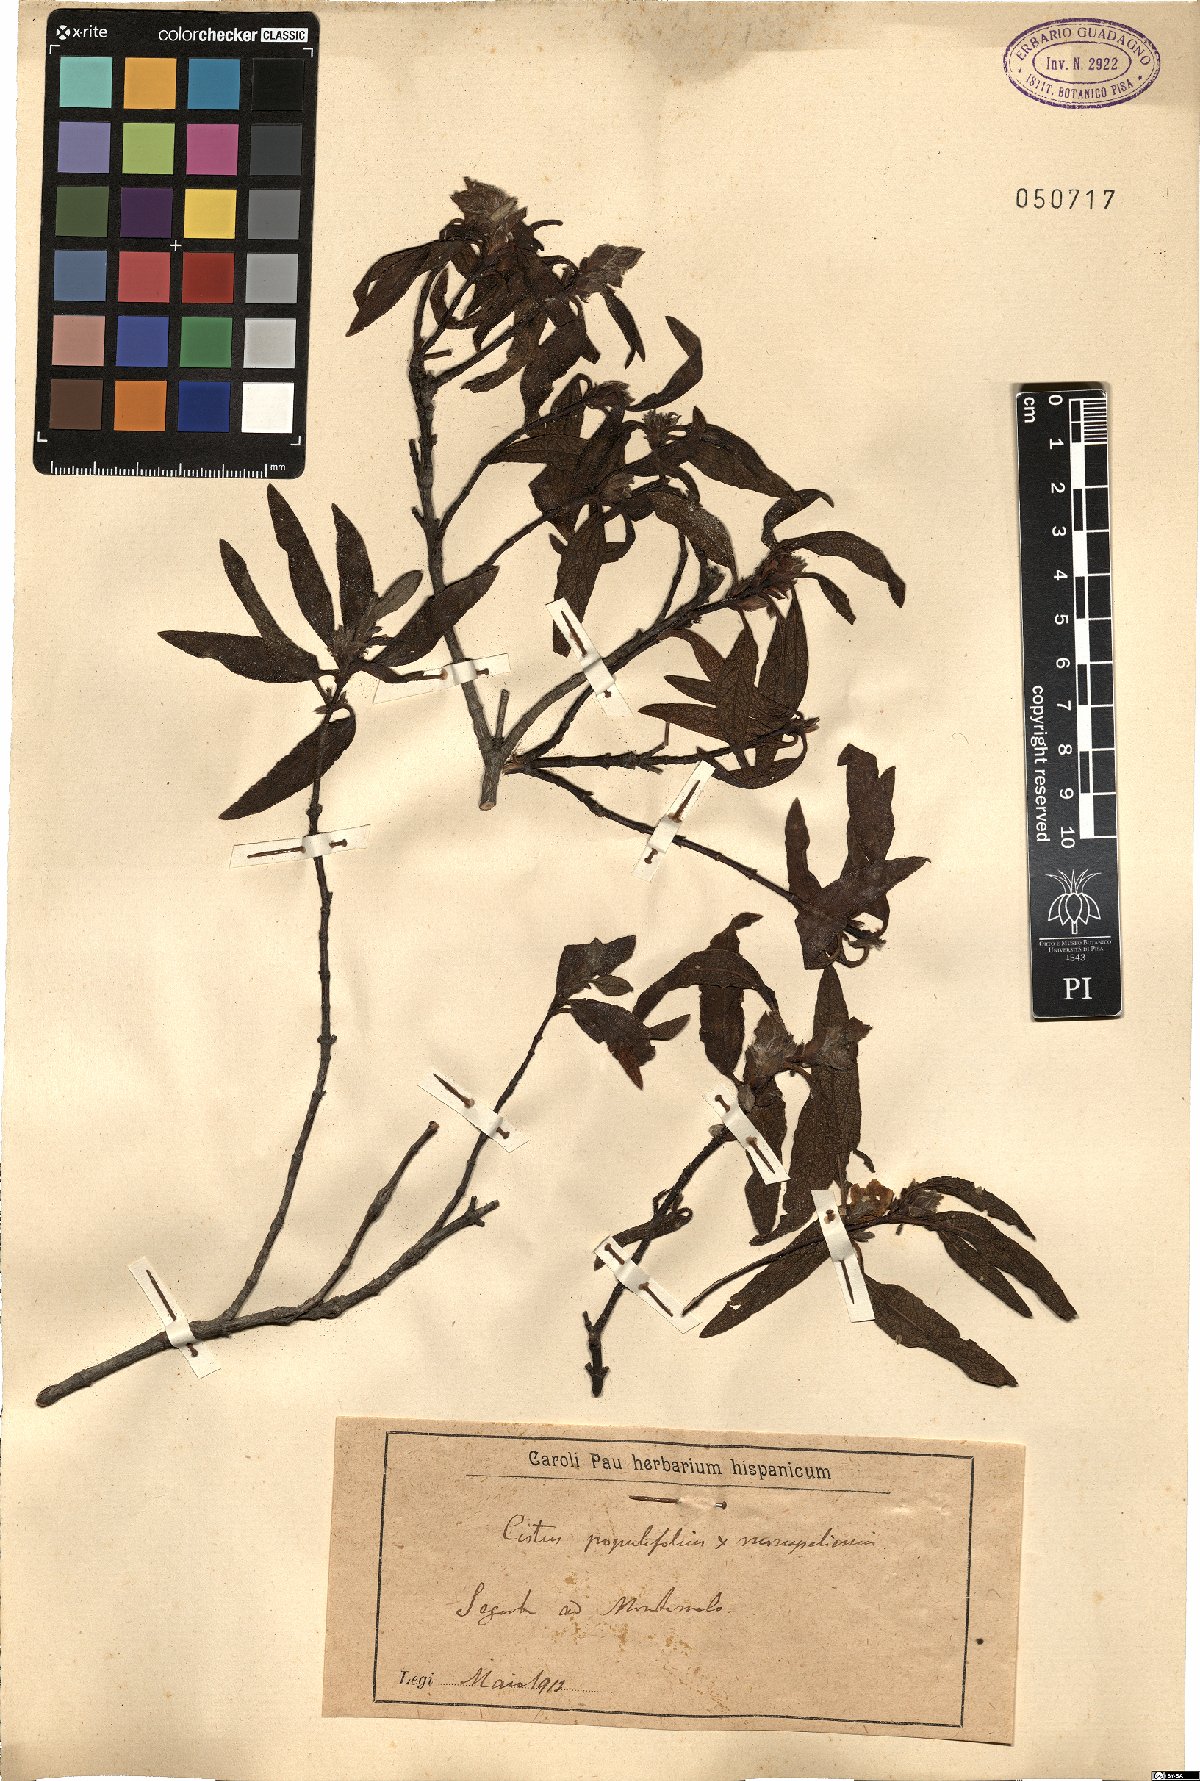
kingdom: Plantae
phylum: Tracheophyta
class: Magnoliopsida
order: Malvales
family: Cistaceae
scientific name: Cistaceae
